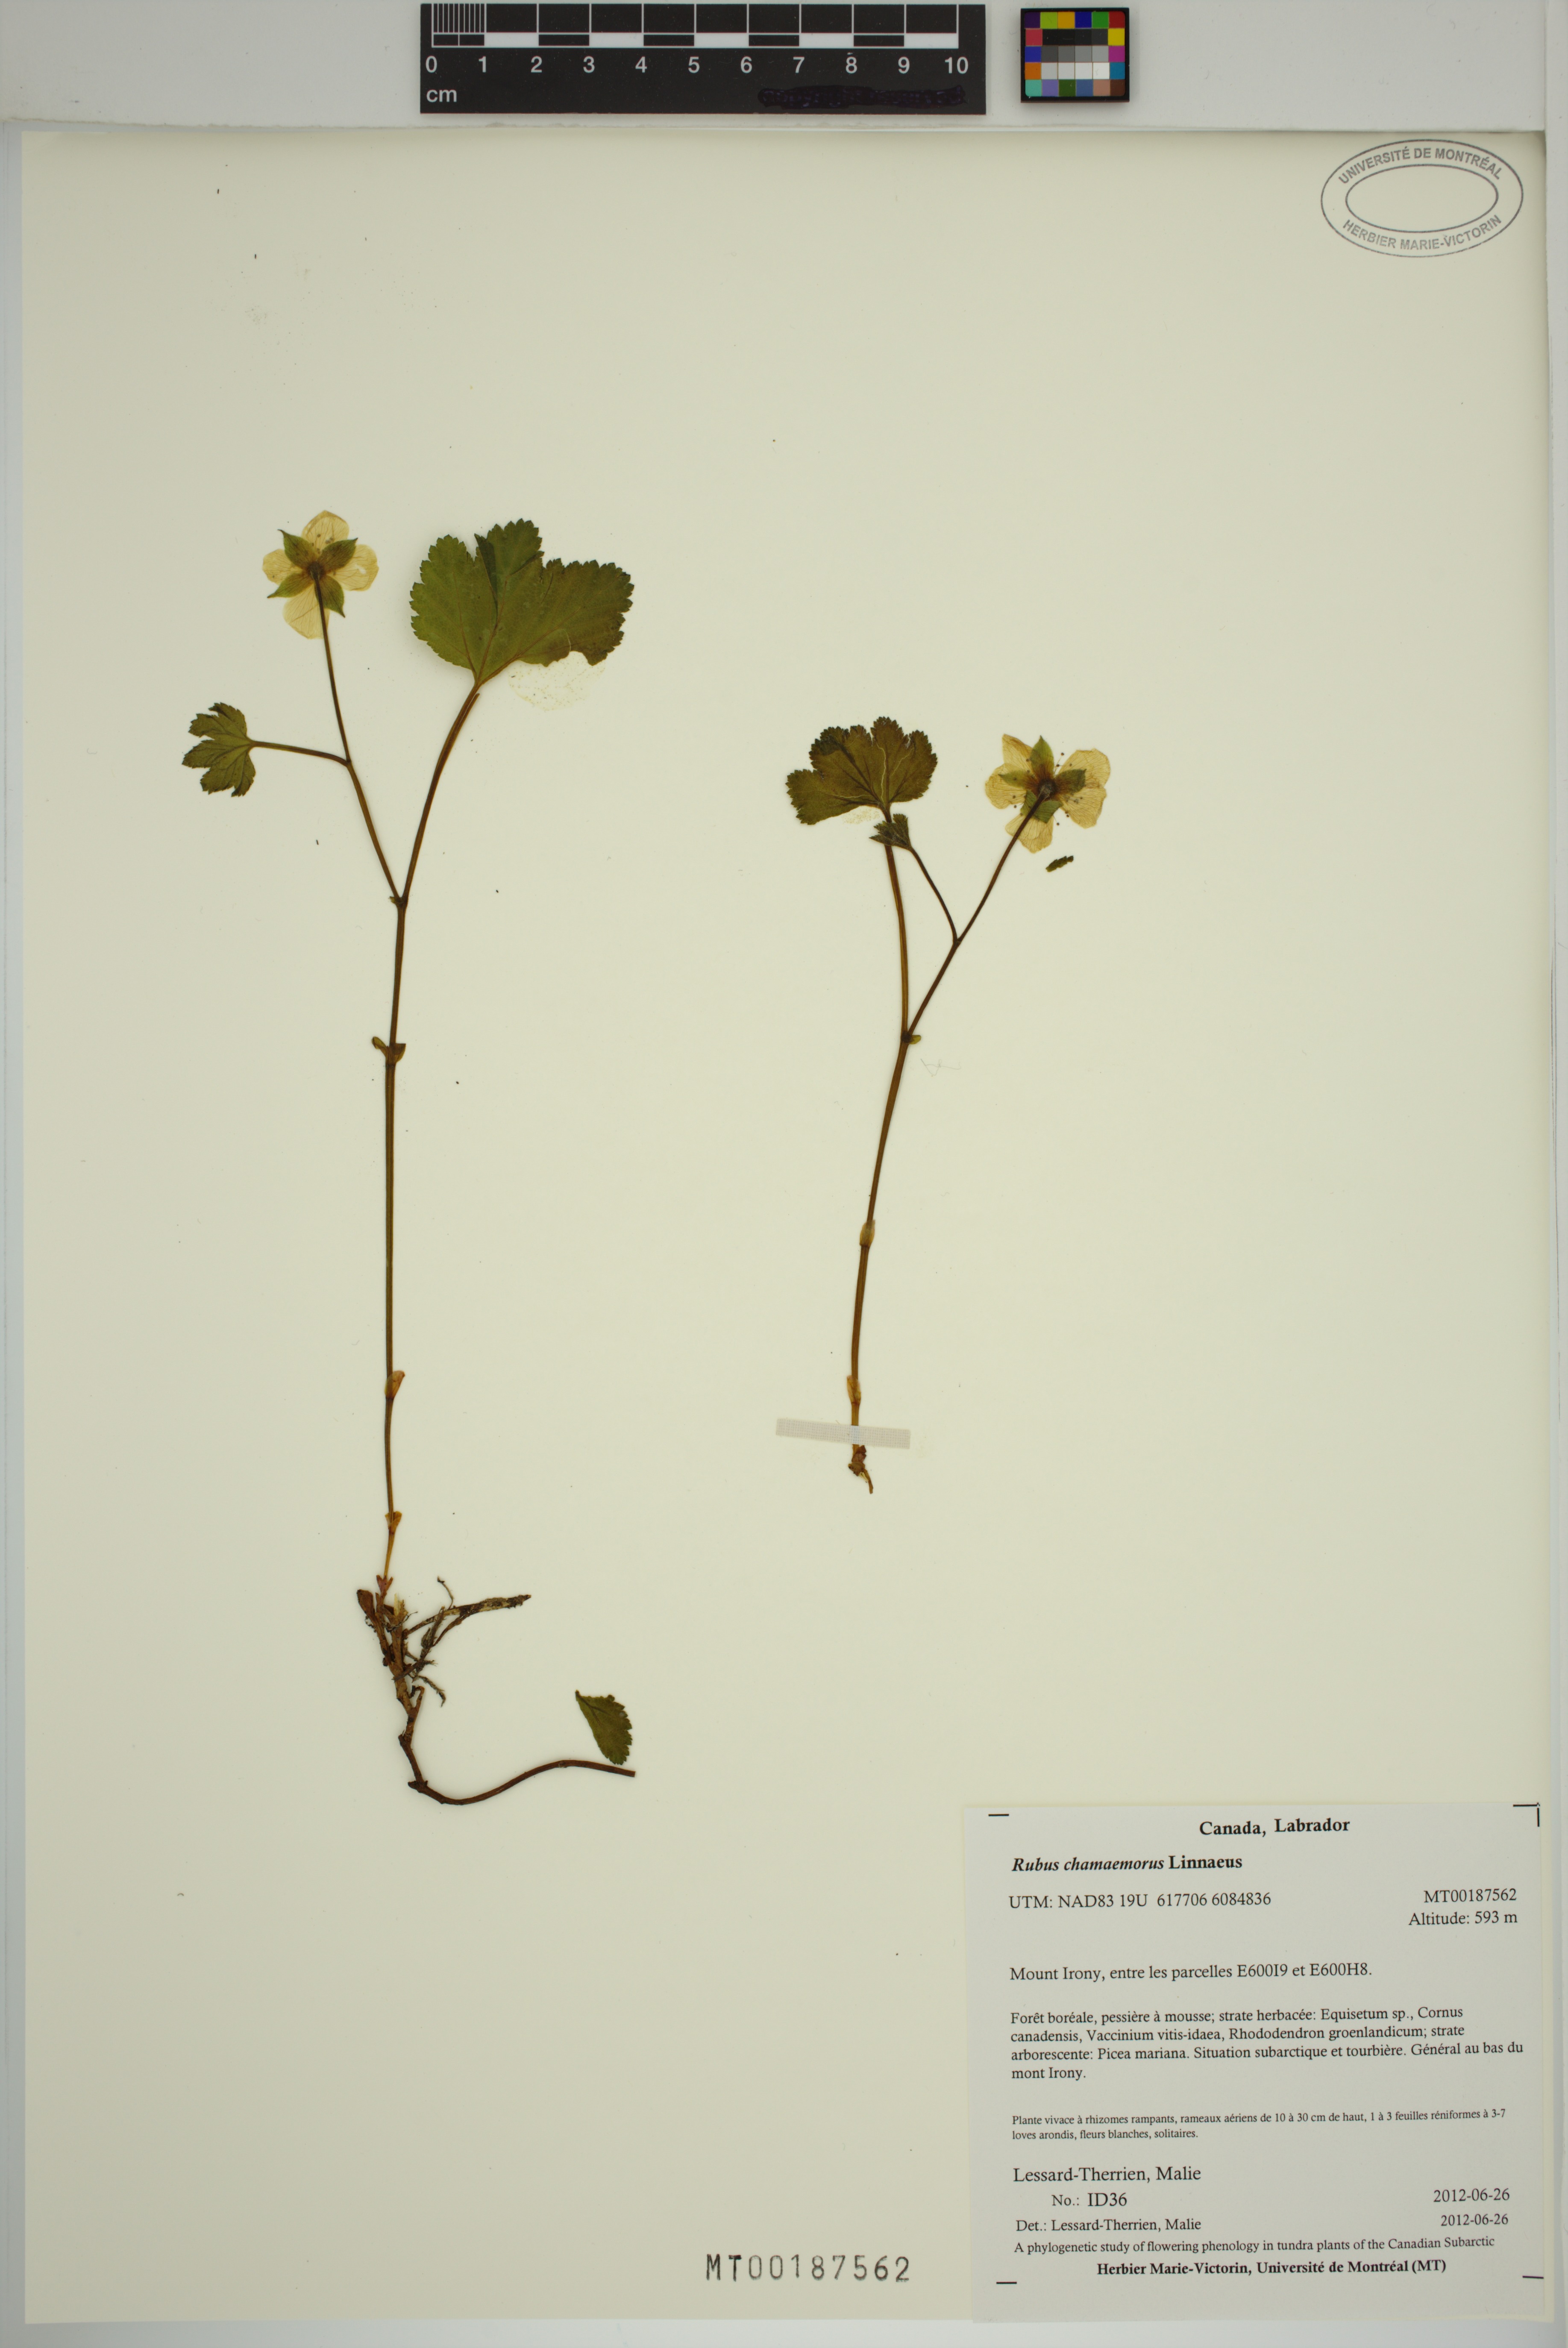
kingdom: Plantae
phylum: Tracheophyta
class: Magnoliopsida
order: Rosales
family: Rosaceae
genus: Rubus
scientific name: Rubus chamaemorus
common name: Cloudberry
